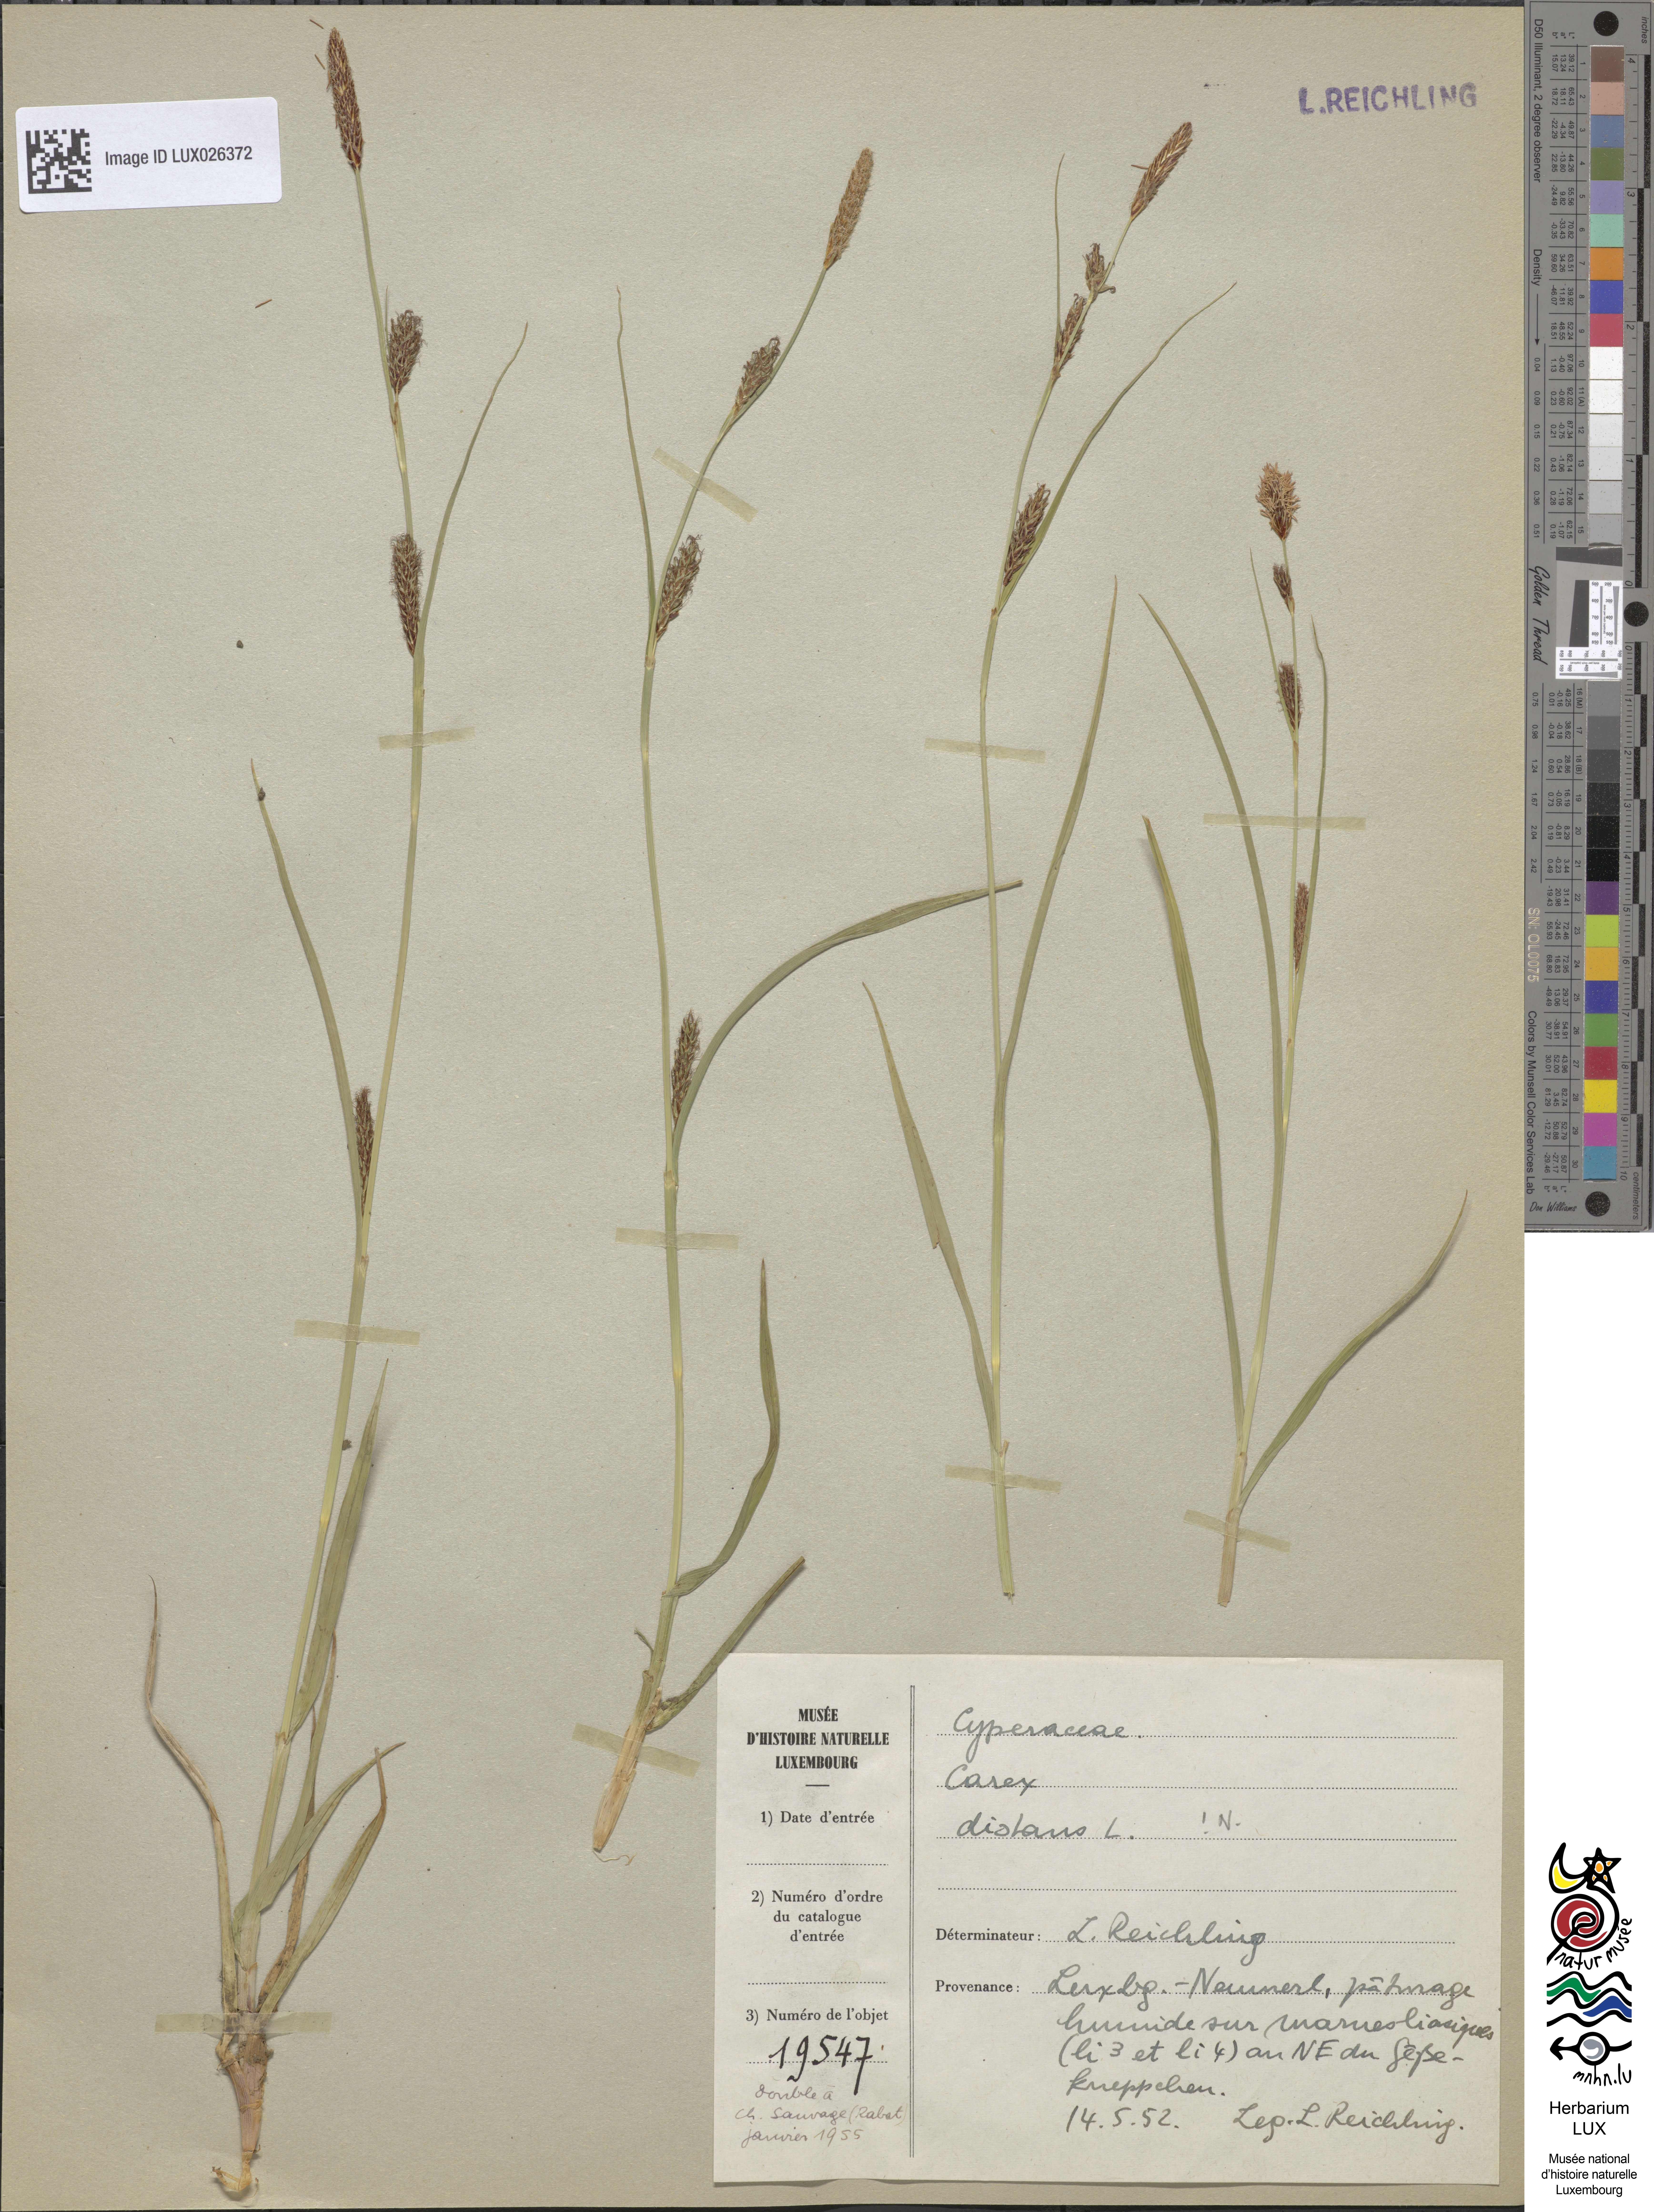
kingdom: Plantae
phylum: Tracheophyta
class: Liliopsida
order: Poales
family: Cyperaceae
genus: Carex
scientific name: Carex distans
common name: Distant sedge
